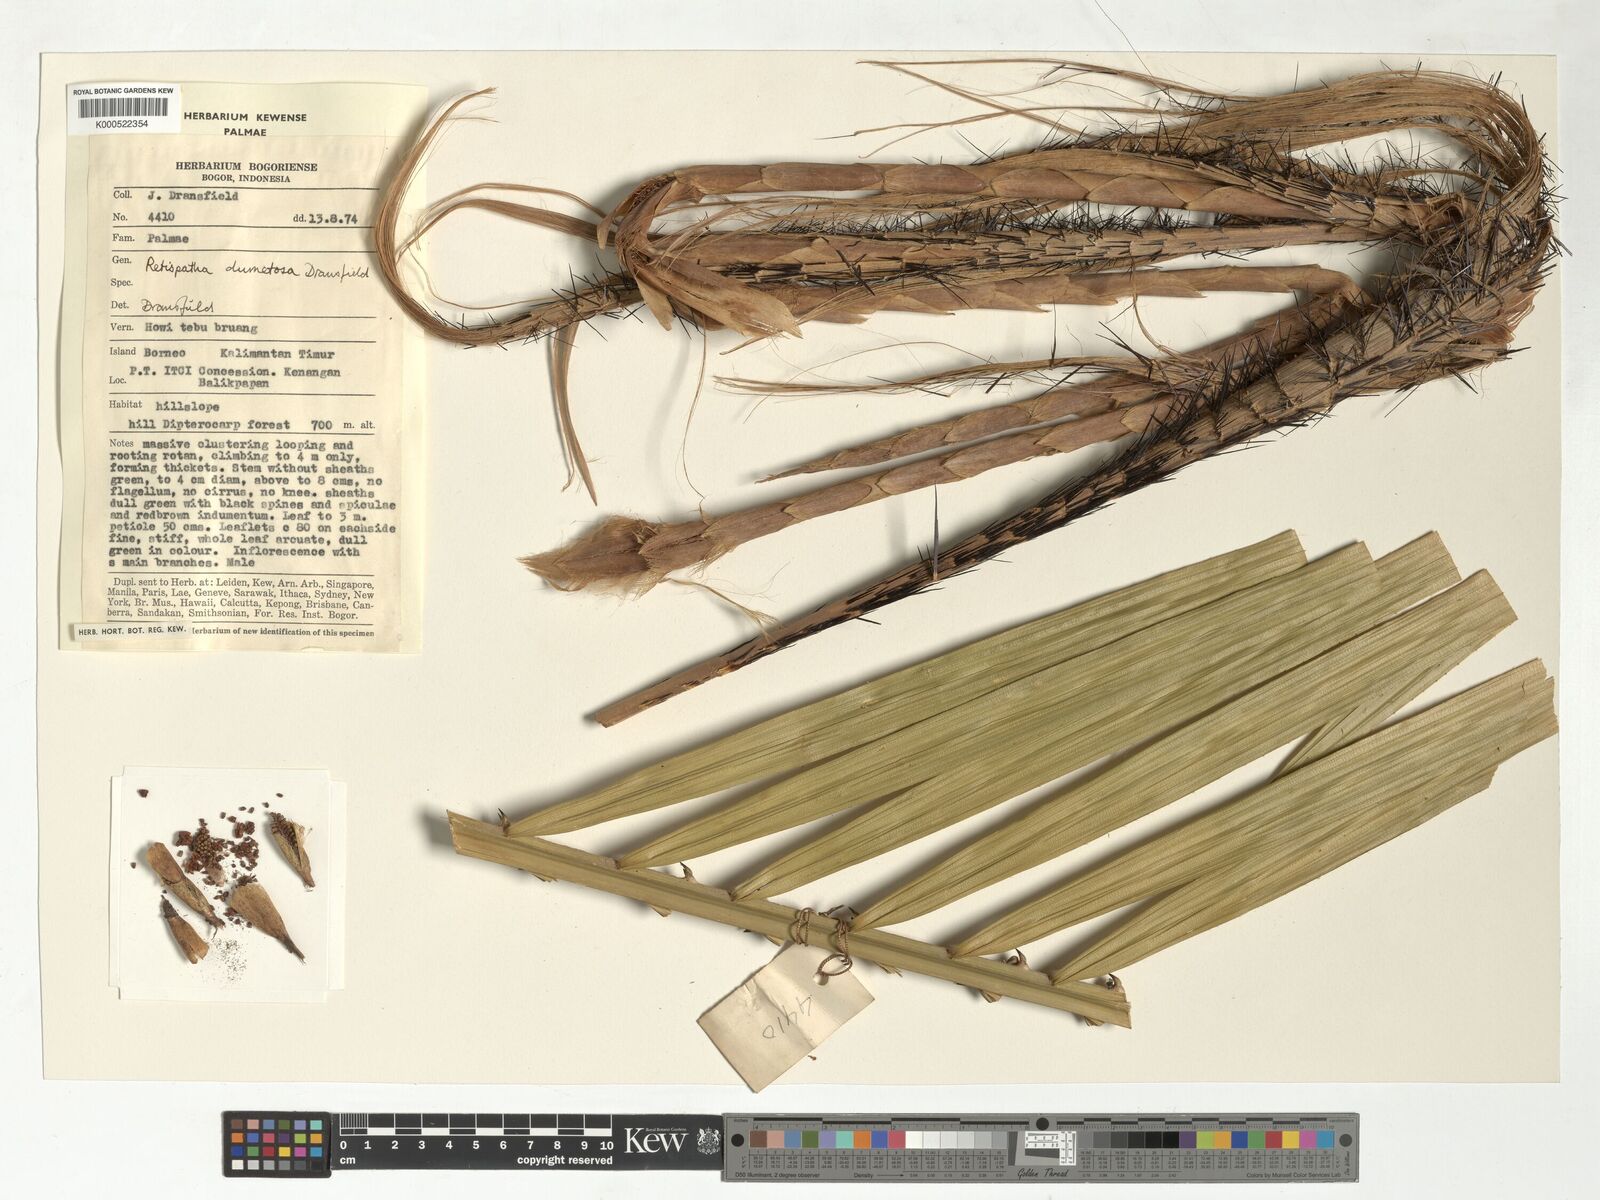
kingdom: Plantae
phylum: Tracheophyta
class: Liliopsida
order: Arecales
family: Arecaceae
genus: Calamus
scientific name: Calamus dumetosus
